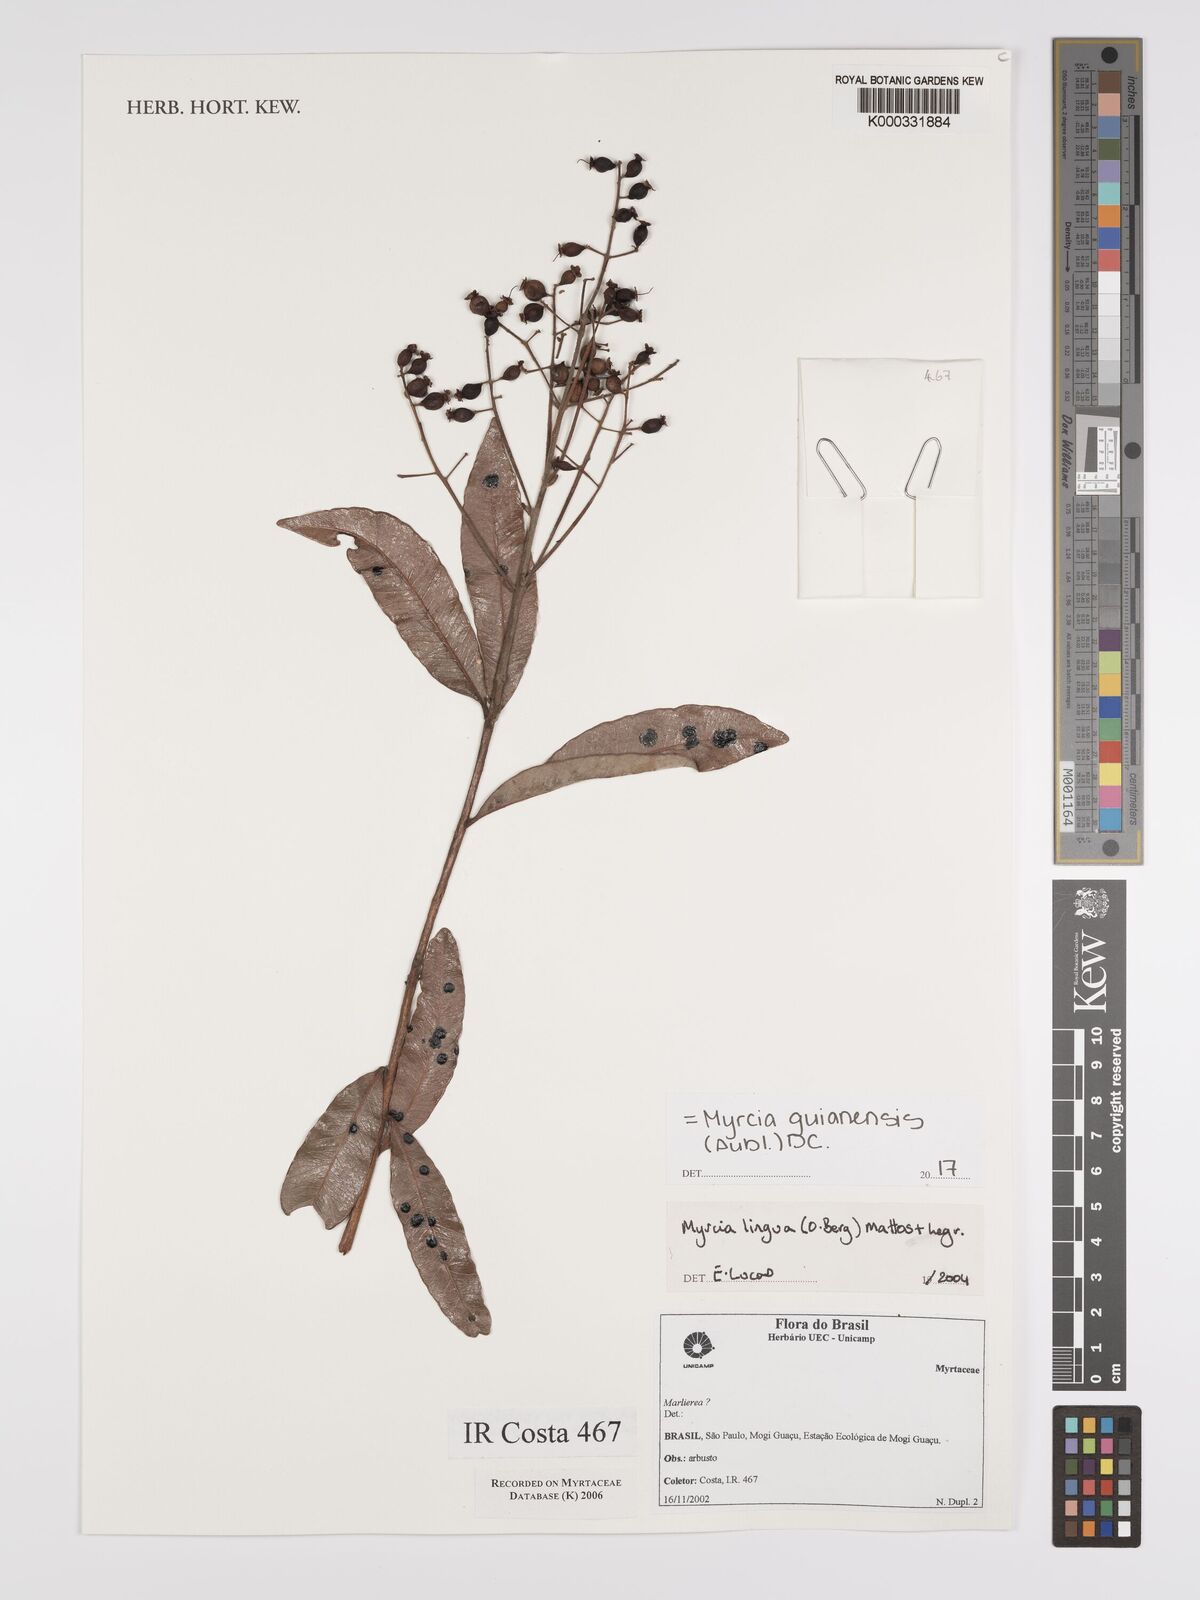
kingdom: Plantae
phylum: Tracheophyta
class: Magnoliopsida
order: Myrtales
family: Myrtaceae
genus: Myrcia
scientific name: Myrcia guianensis
